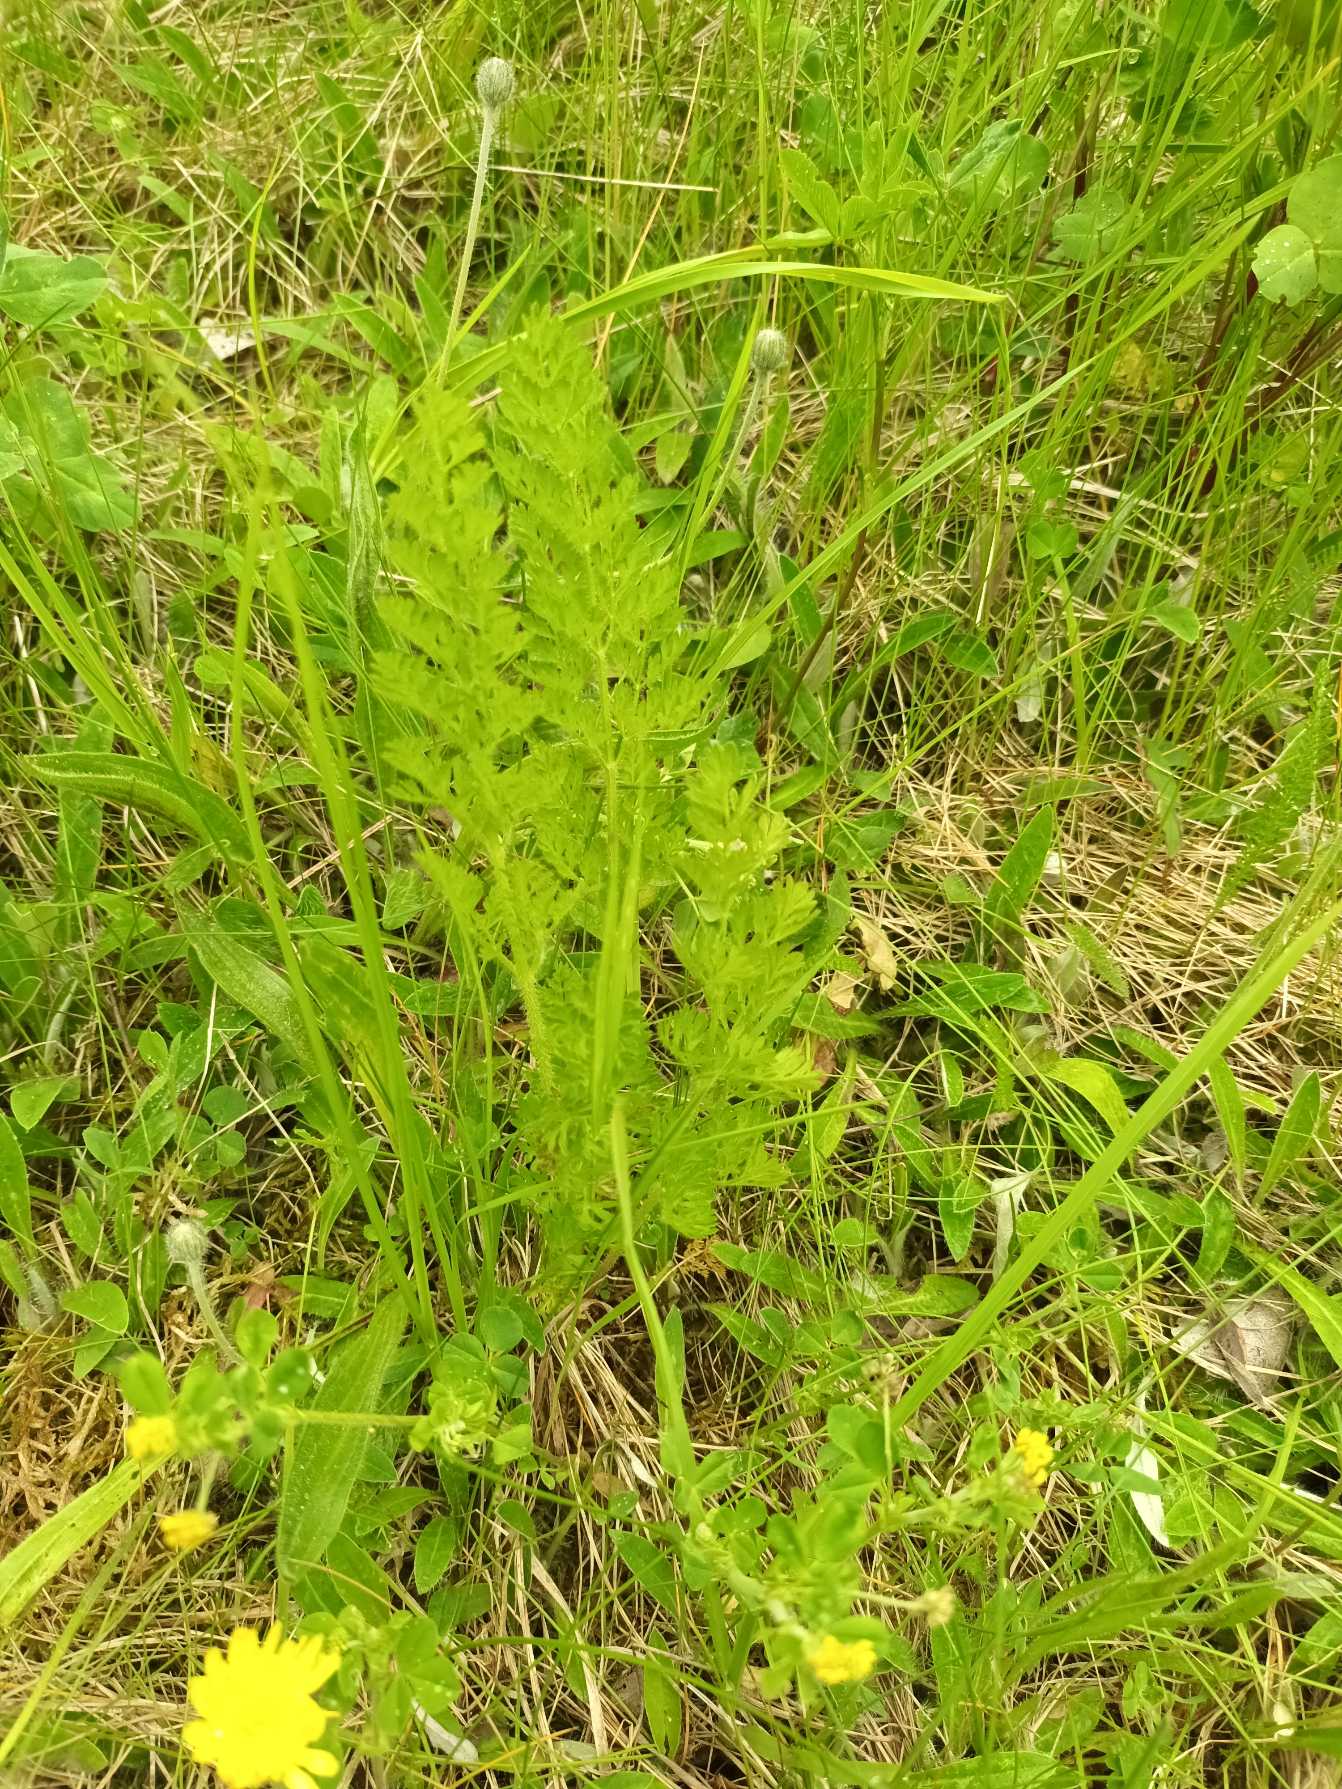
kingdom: Plantae
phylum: Tracheophyta
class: Magnoliopsida
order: Apiales
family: Apiaceae
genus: Daucus
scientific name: Daucus carota
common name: Gulerod
